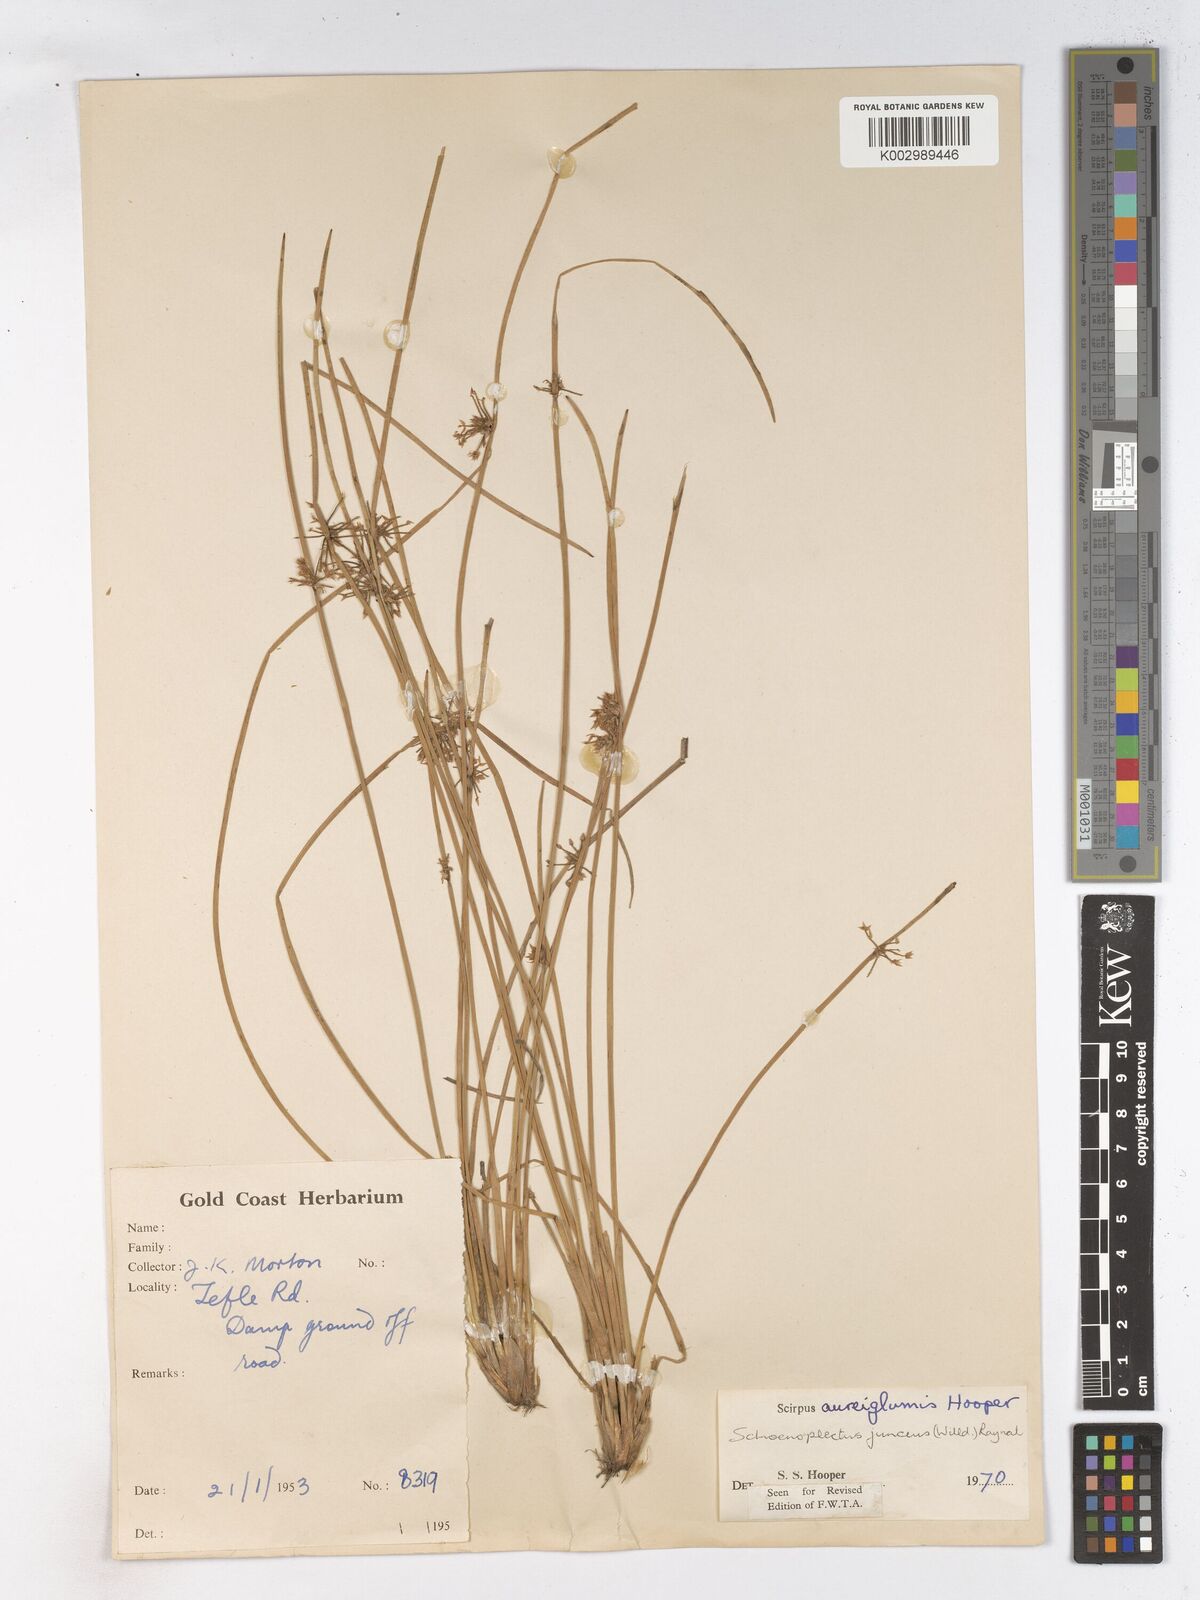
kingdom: Plantae
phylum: Tracheophyta
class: Liliopsida
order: Poales
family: Cyperaceae
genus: Schoenoplectiella
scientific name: Schoenoplectiella juncea
